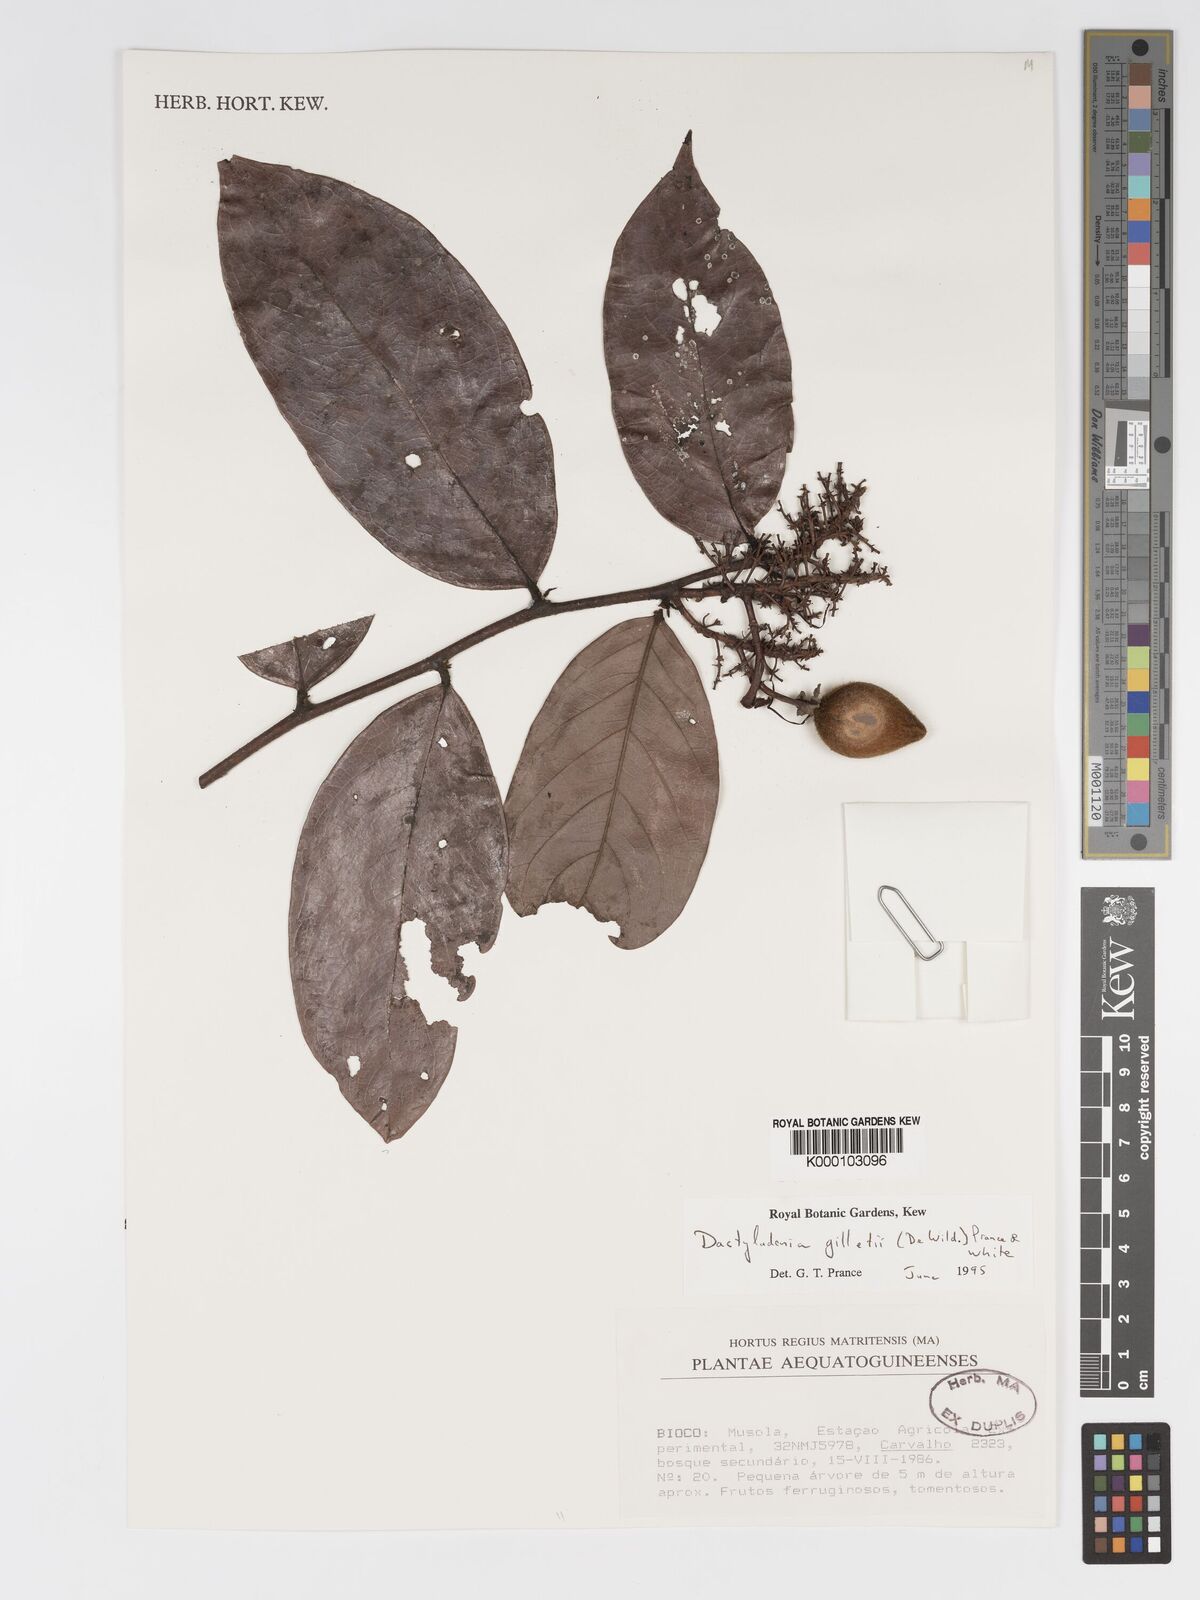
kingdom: Plantae
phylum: Tracheophyta
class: Magnoliopsida
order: Malpighiales
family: Chrysobalanaceae
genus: Dactyladenia
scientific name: Dactyladenia gilletii
